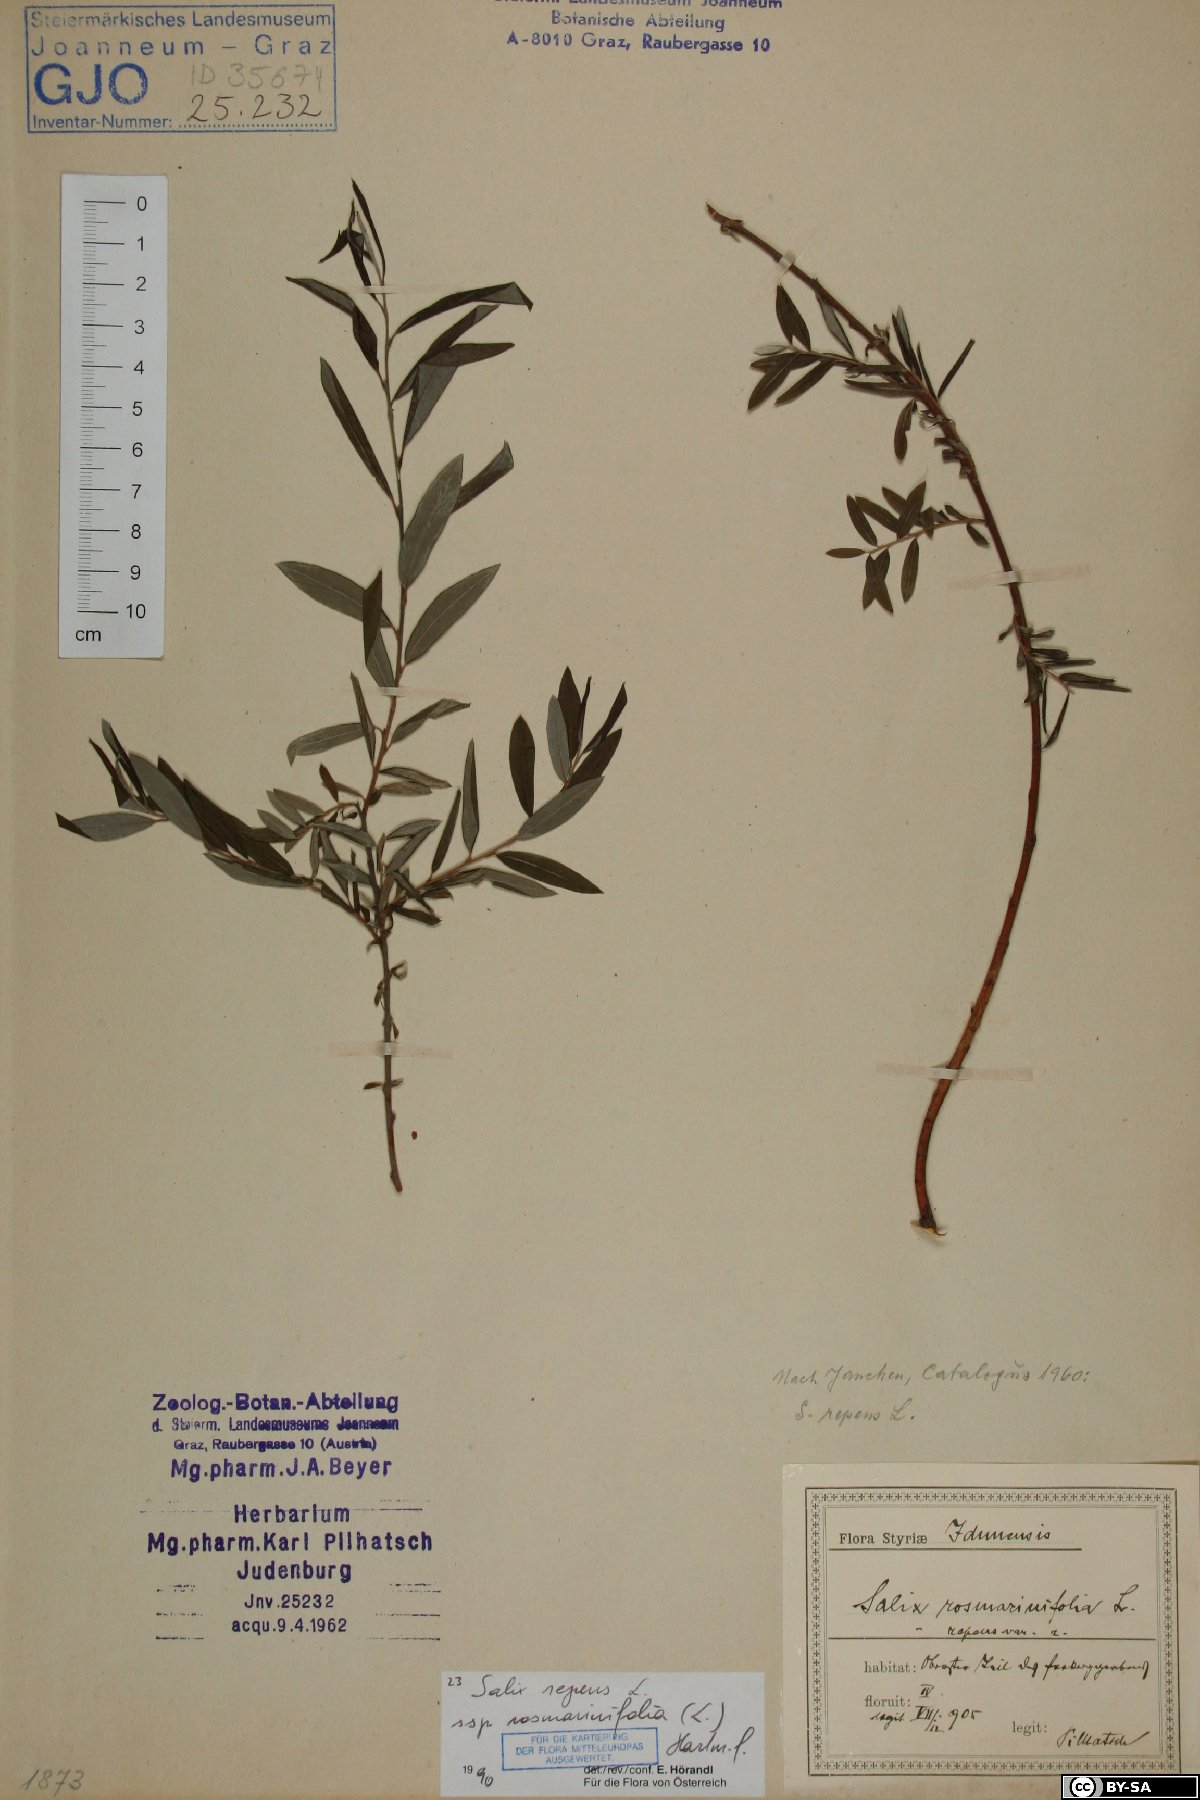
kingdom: Plantae
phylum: Tracheophyta
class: Magnoliopsida
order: Caryophyllales
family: Caryophyllaceae
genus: Sagina
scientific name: Sagina
